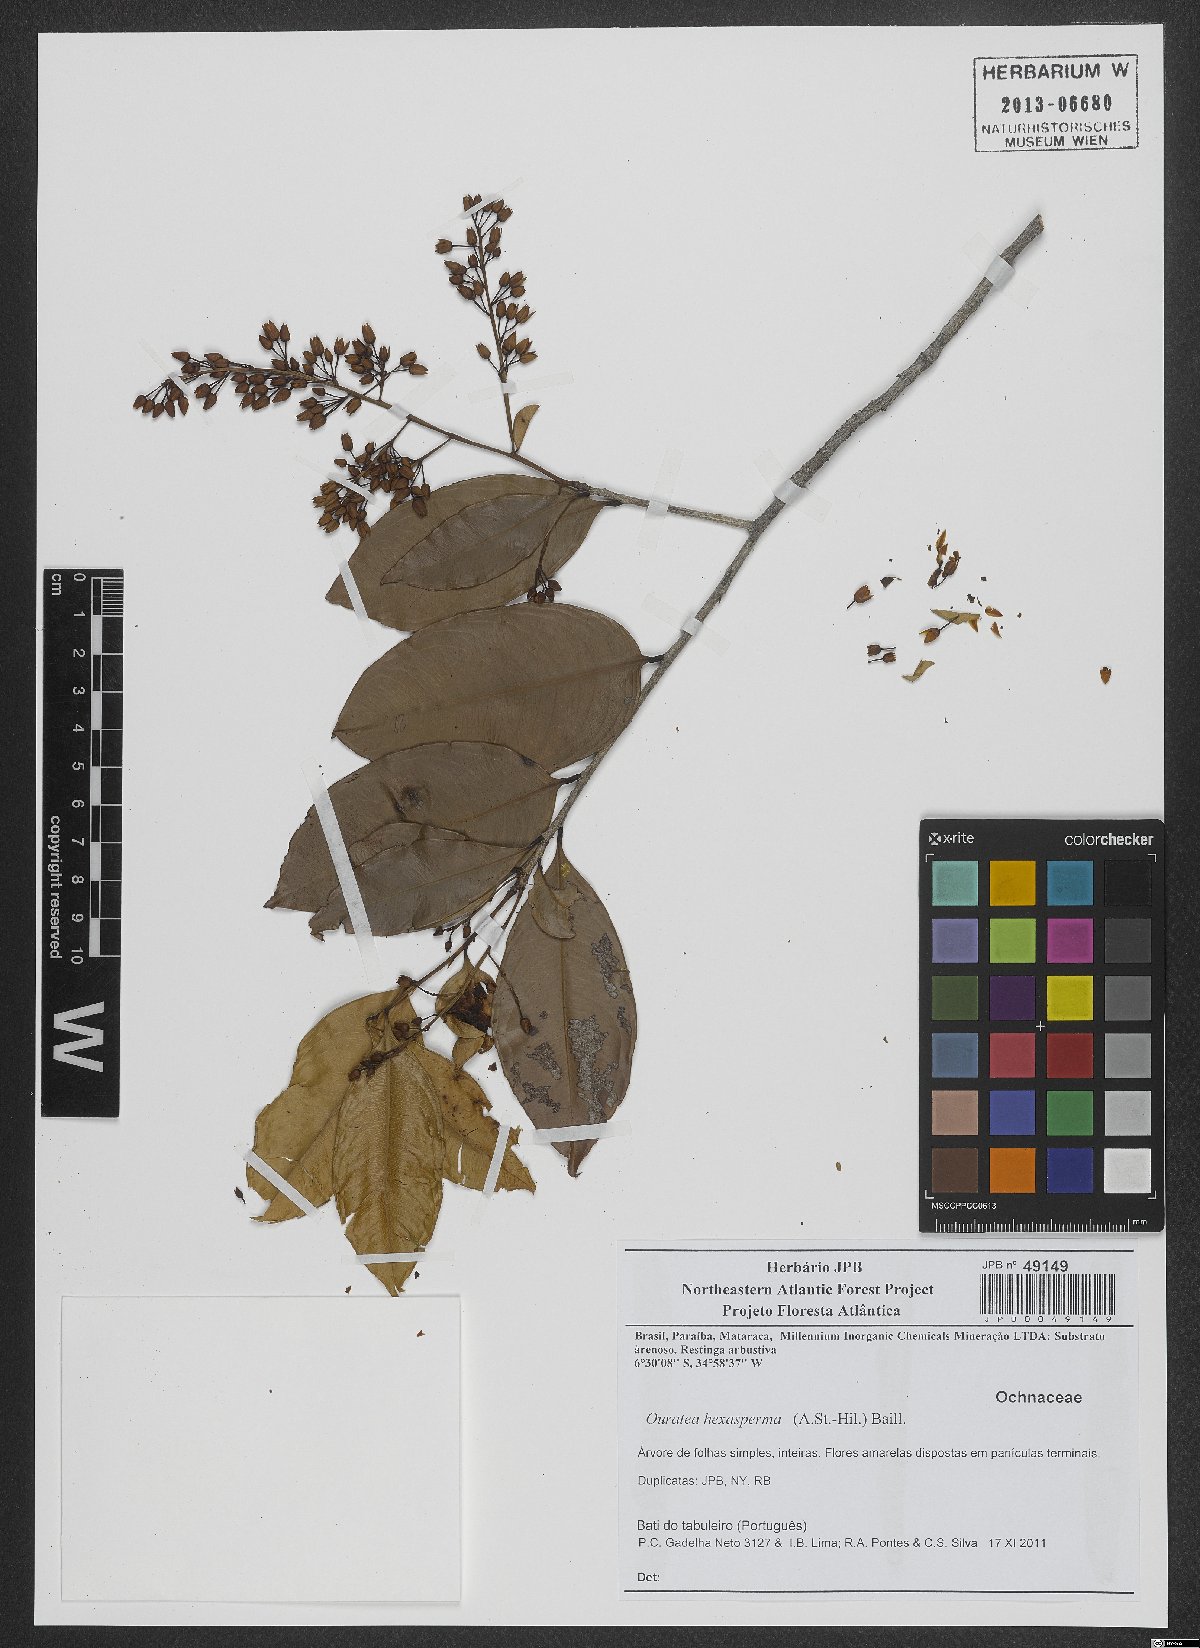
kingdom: Plantae
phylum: Tracheophyta
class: Magnoliopsida
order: Malpighiales
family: Ochnaceae
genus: Ouratea
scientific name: Ouratea hexasperma
